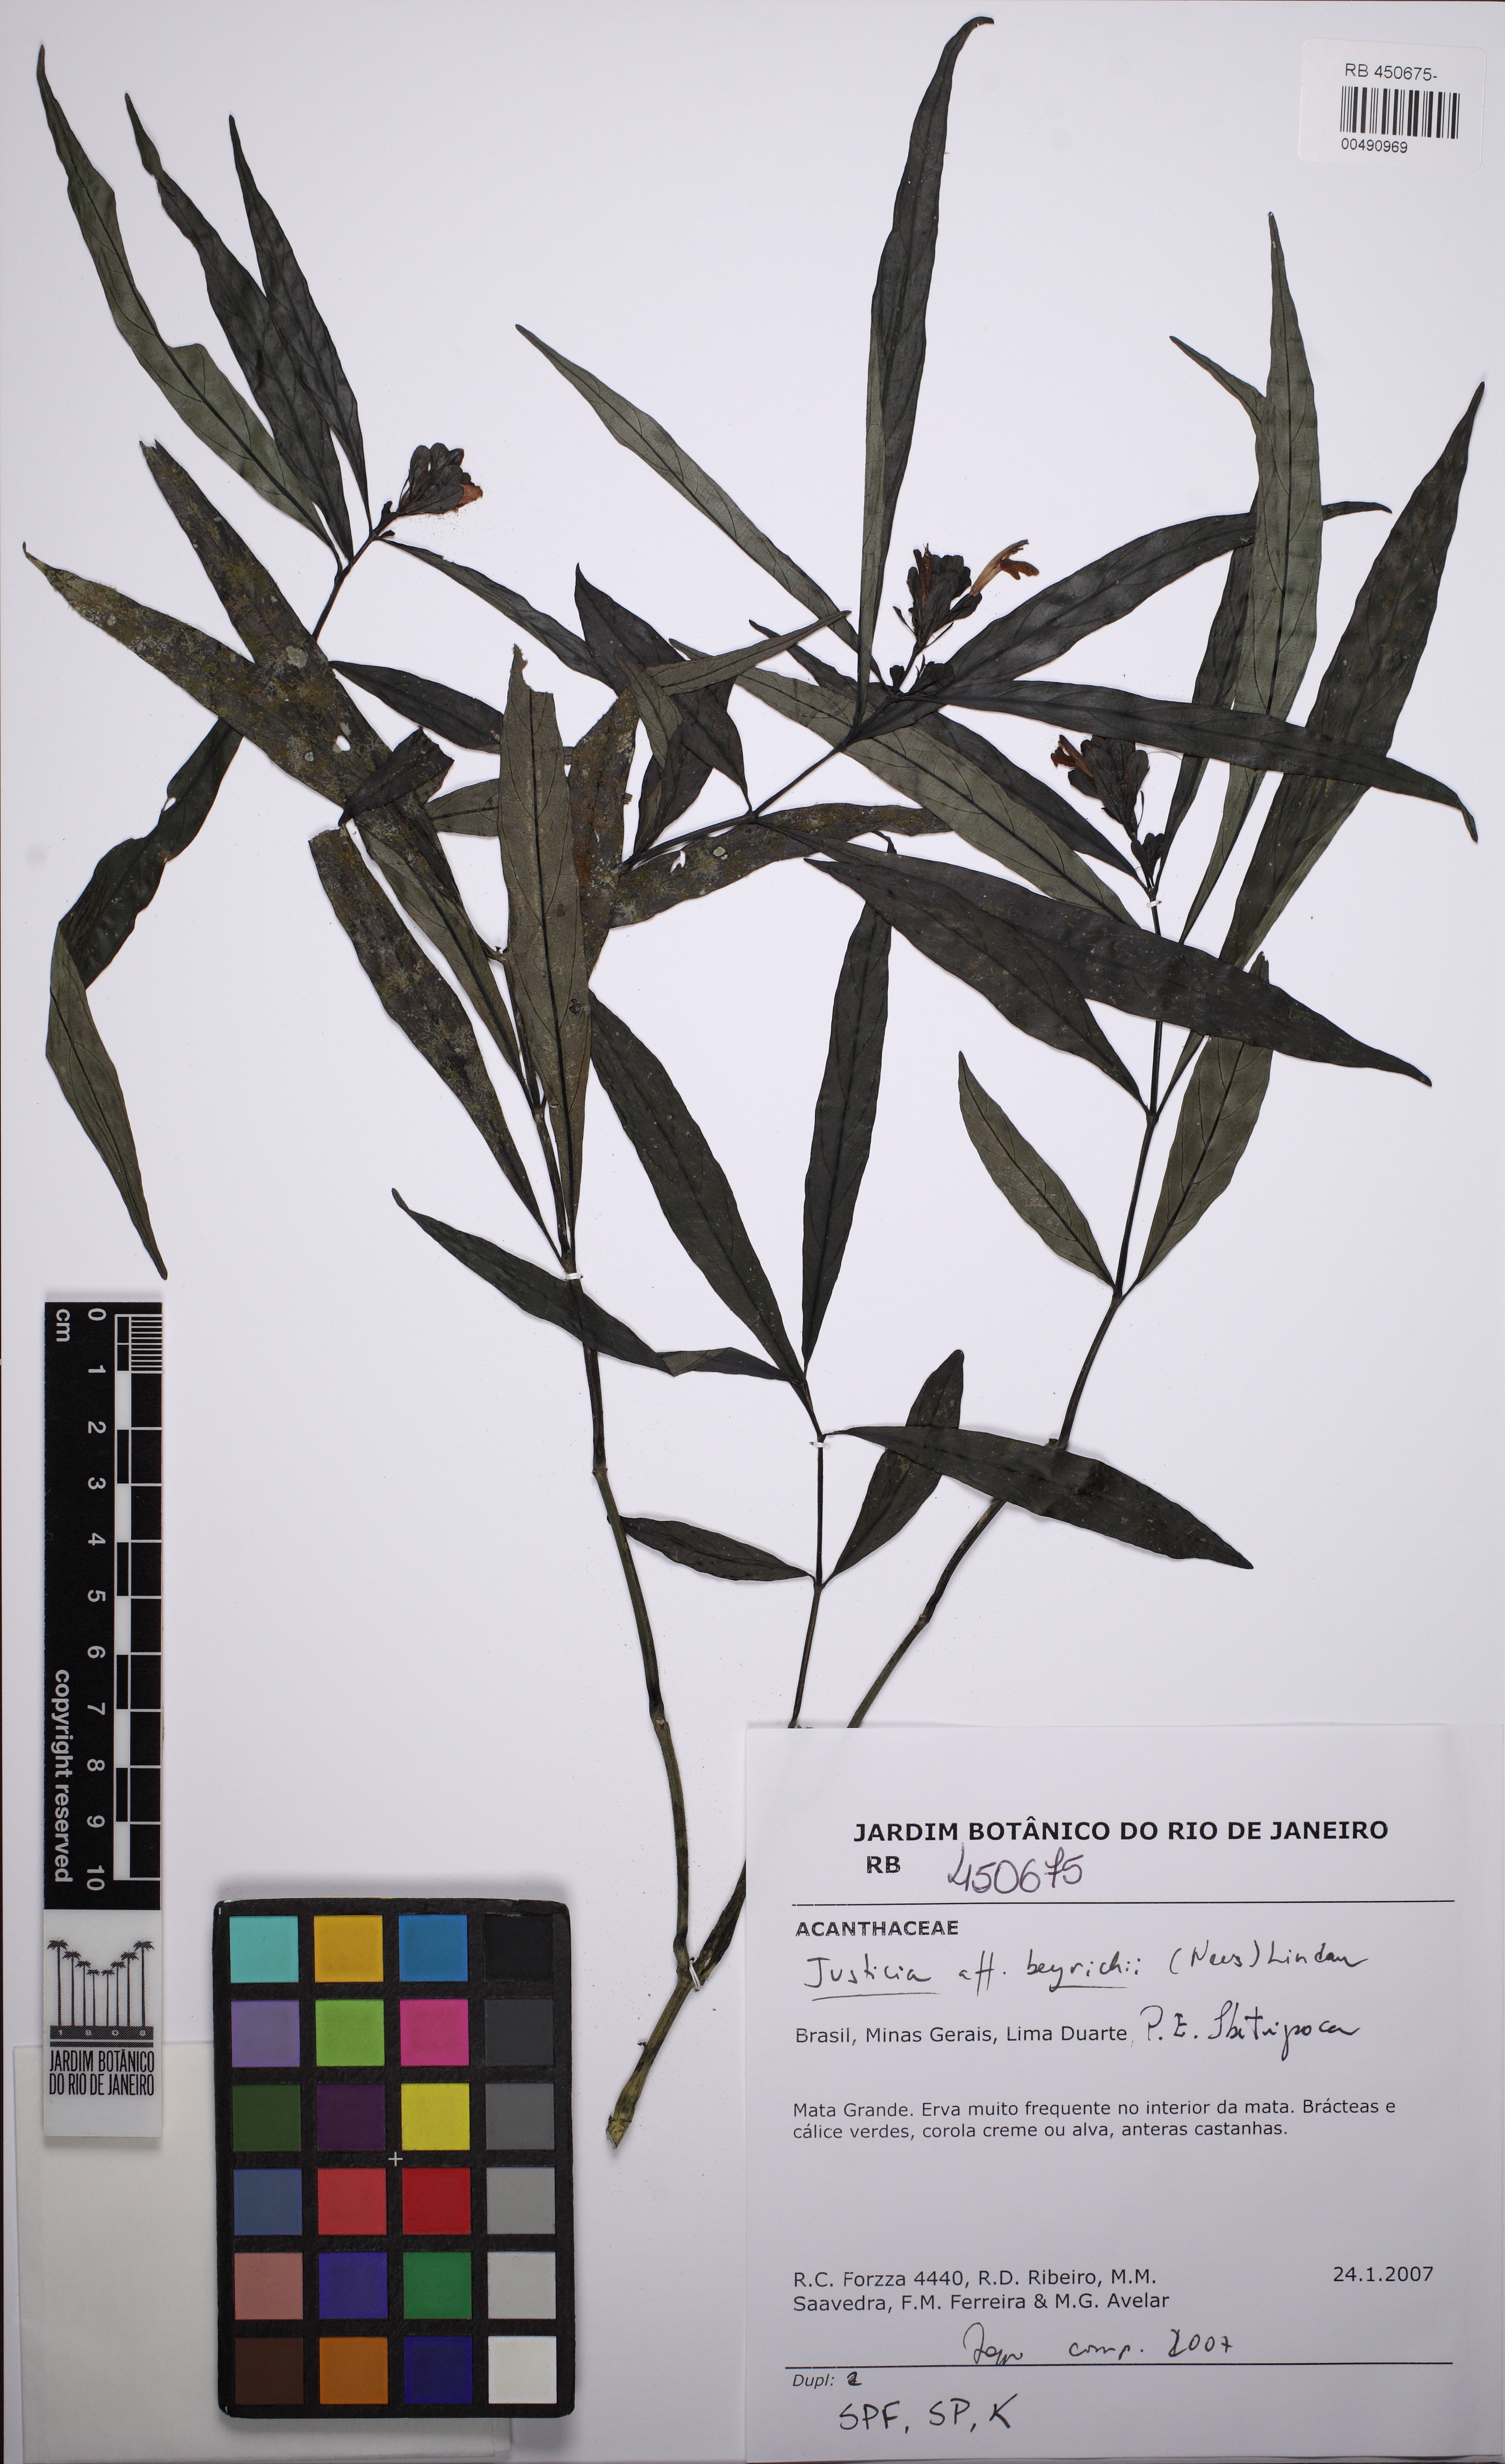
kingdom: Plantae
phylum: Tracheophyta
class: Magnoliopsida
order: Lamiales
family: Acanthaceae
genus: Dianthera
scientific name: Dianthera brasiliensis
